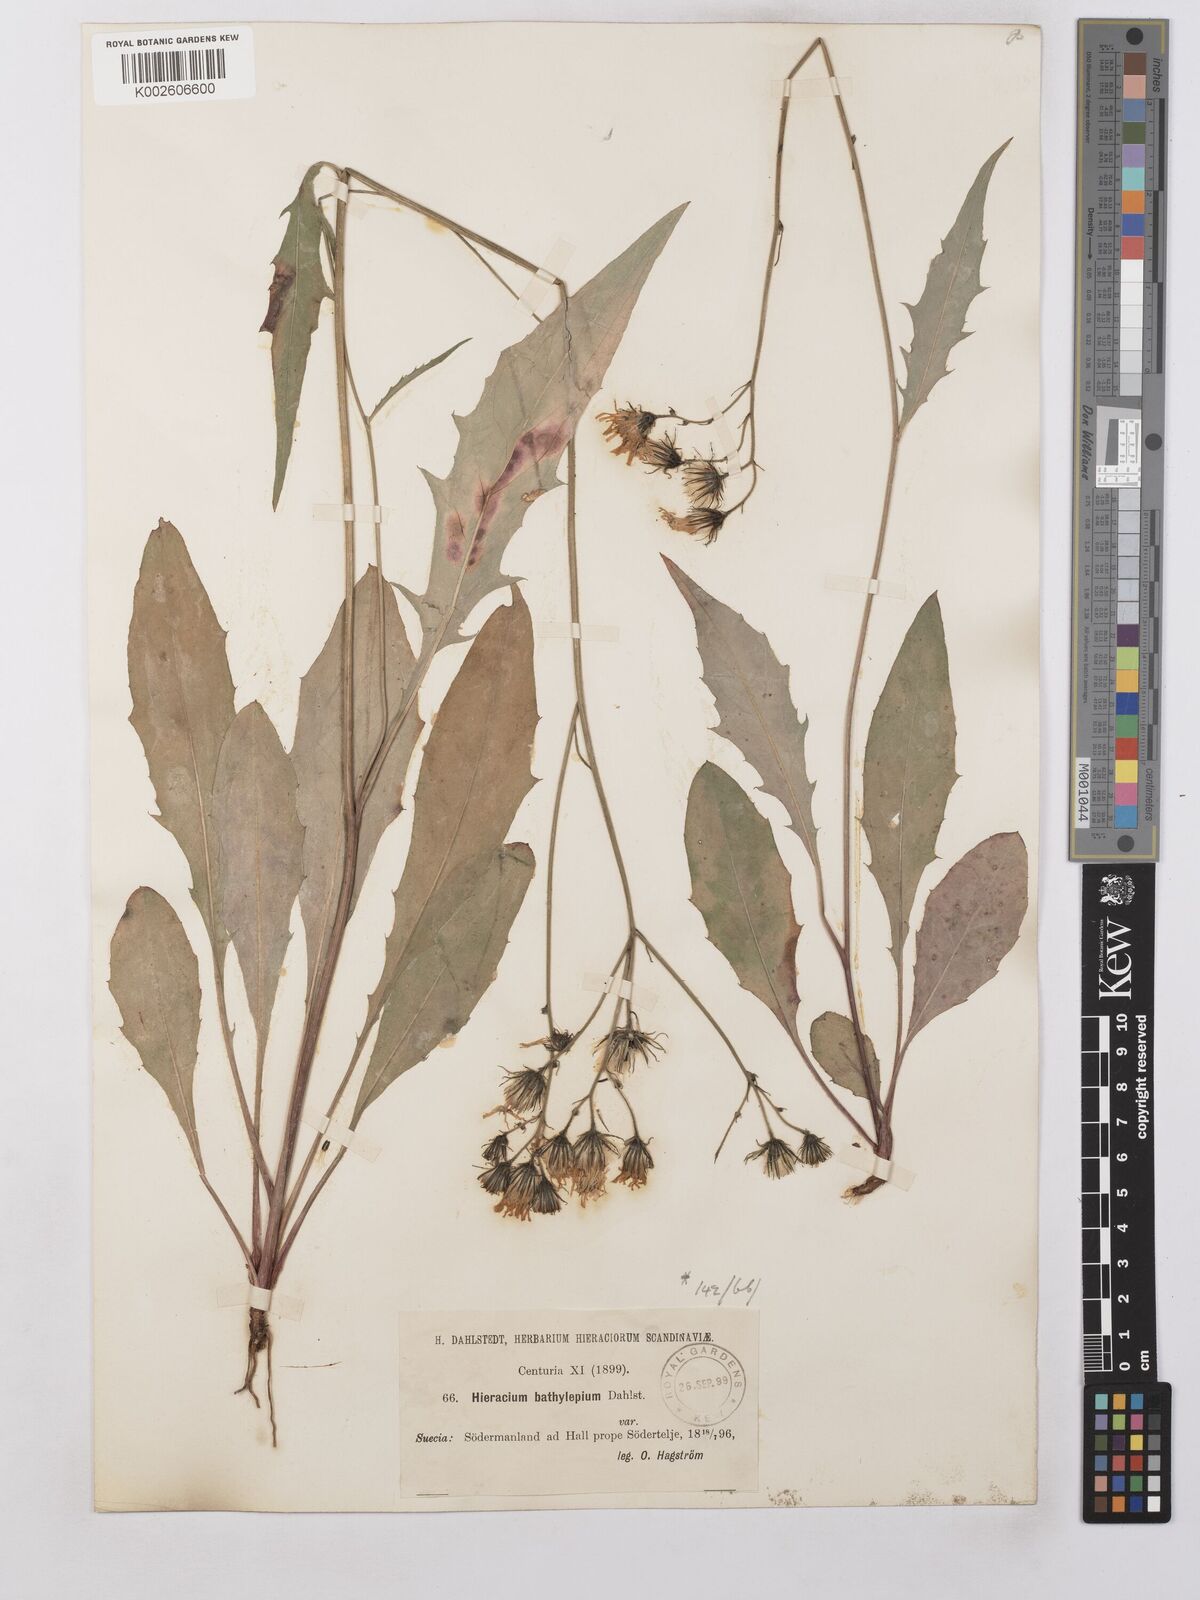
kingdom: Plantae
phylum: Tracheophyta
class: Magnoliopsida
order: Asterales
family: Asteraceae
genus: Hieracium
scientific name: Hieracium lachenalii
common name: Common hawkweed
